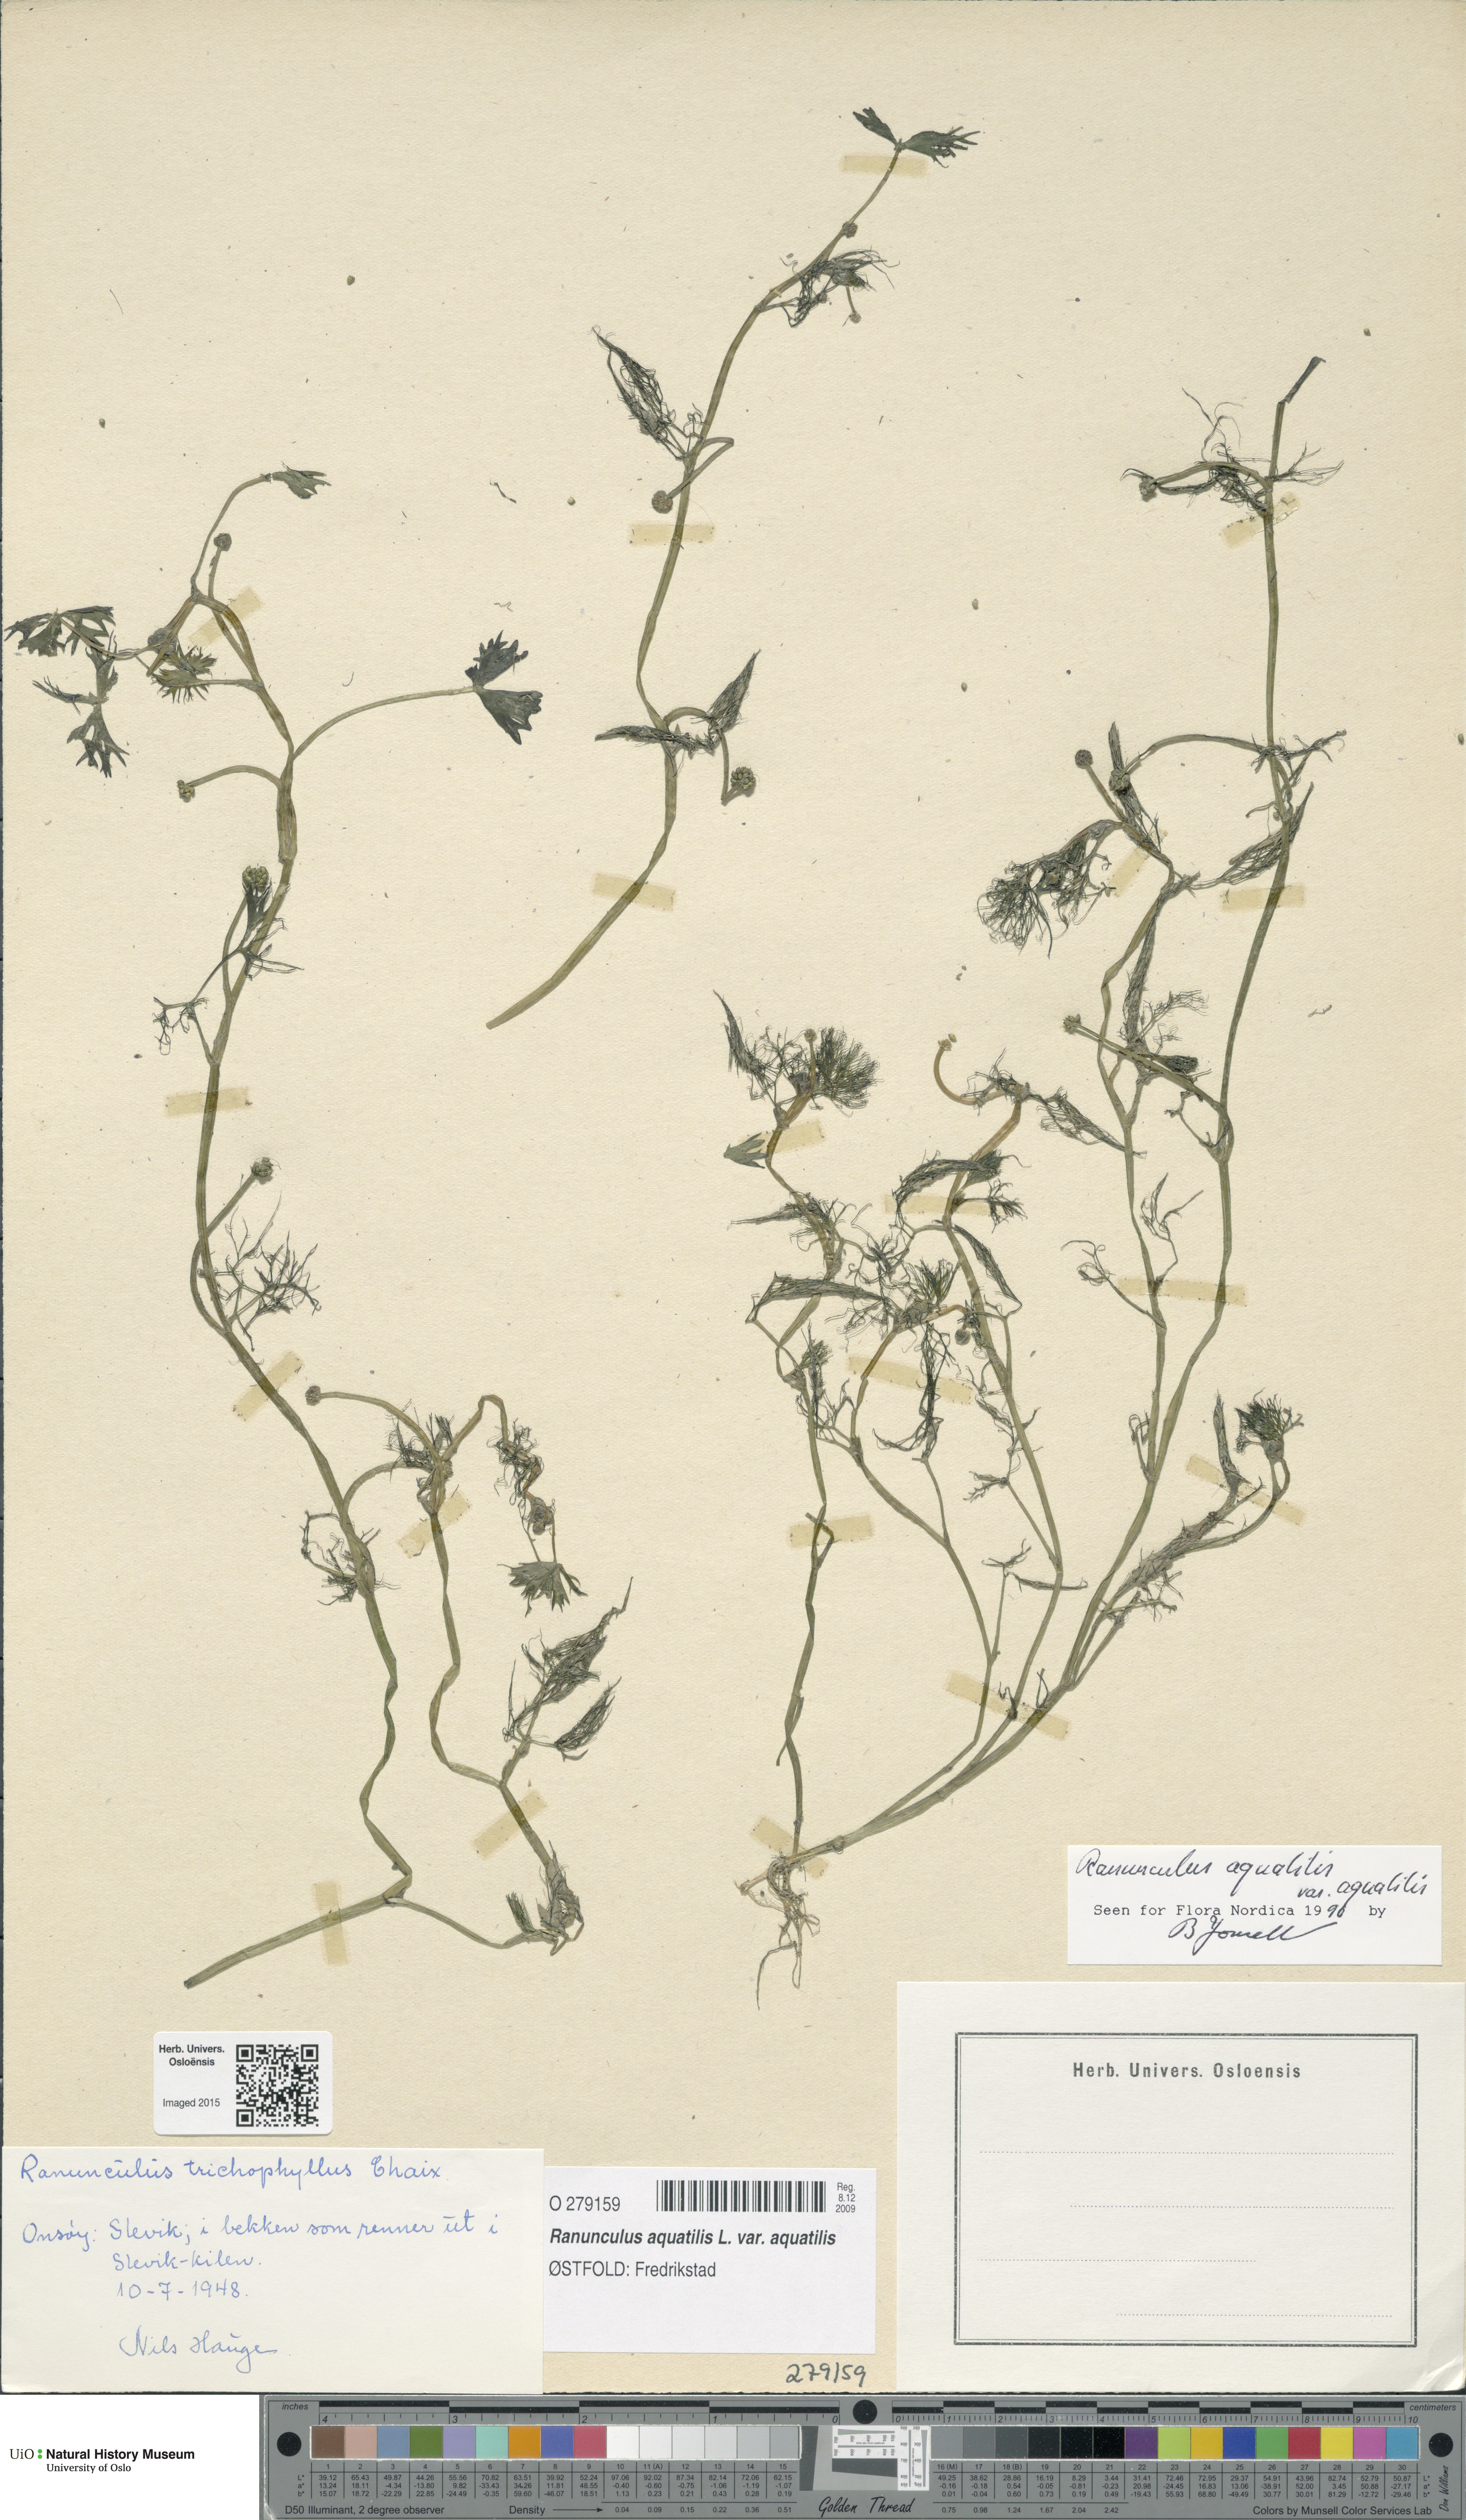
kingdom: Plantae
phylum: Tracheophyta
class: Magnoliopsida
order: Ranunculales
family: Ranunculaceae
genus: Ranunculus
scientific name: Ranunculus aquatilis
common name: Common water-crowfoot
